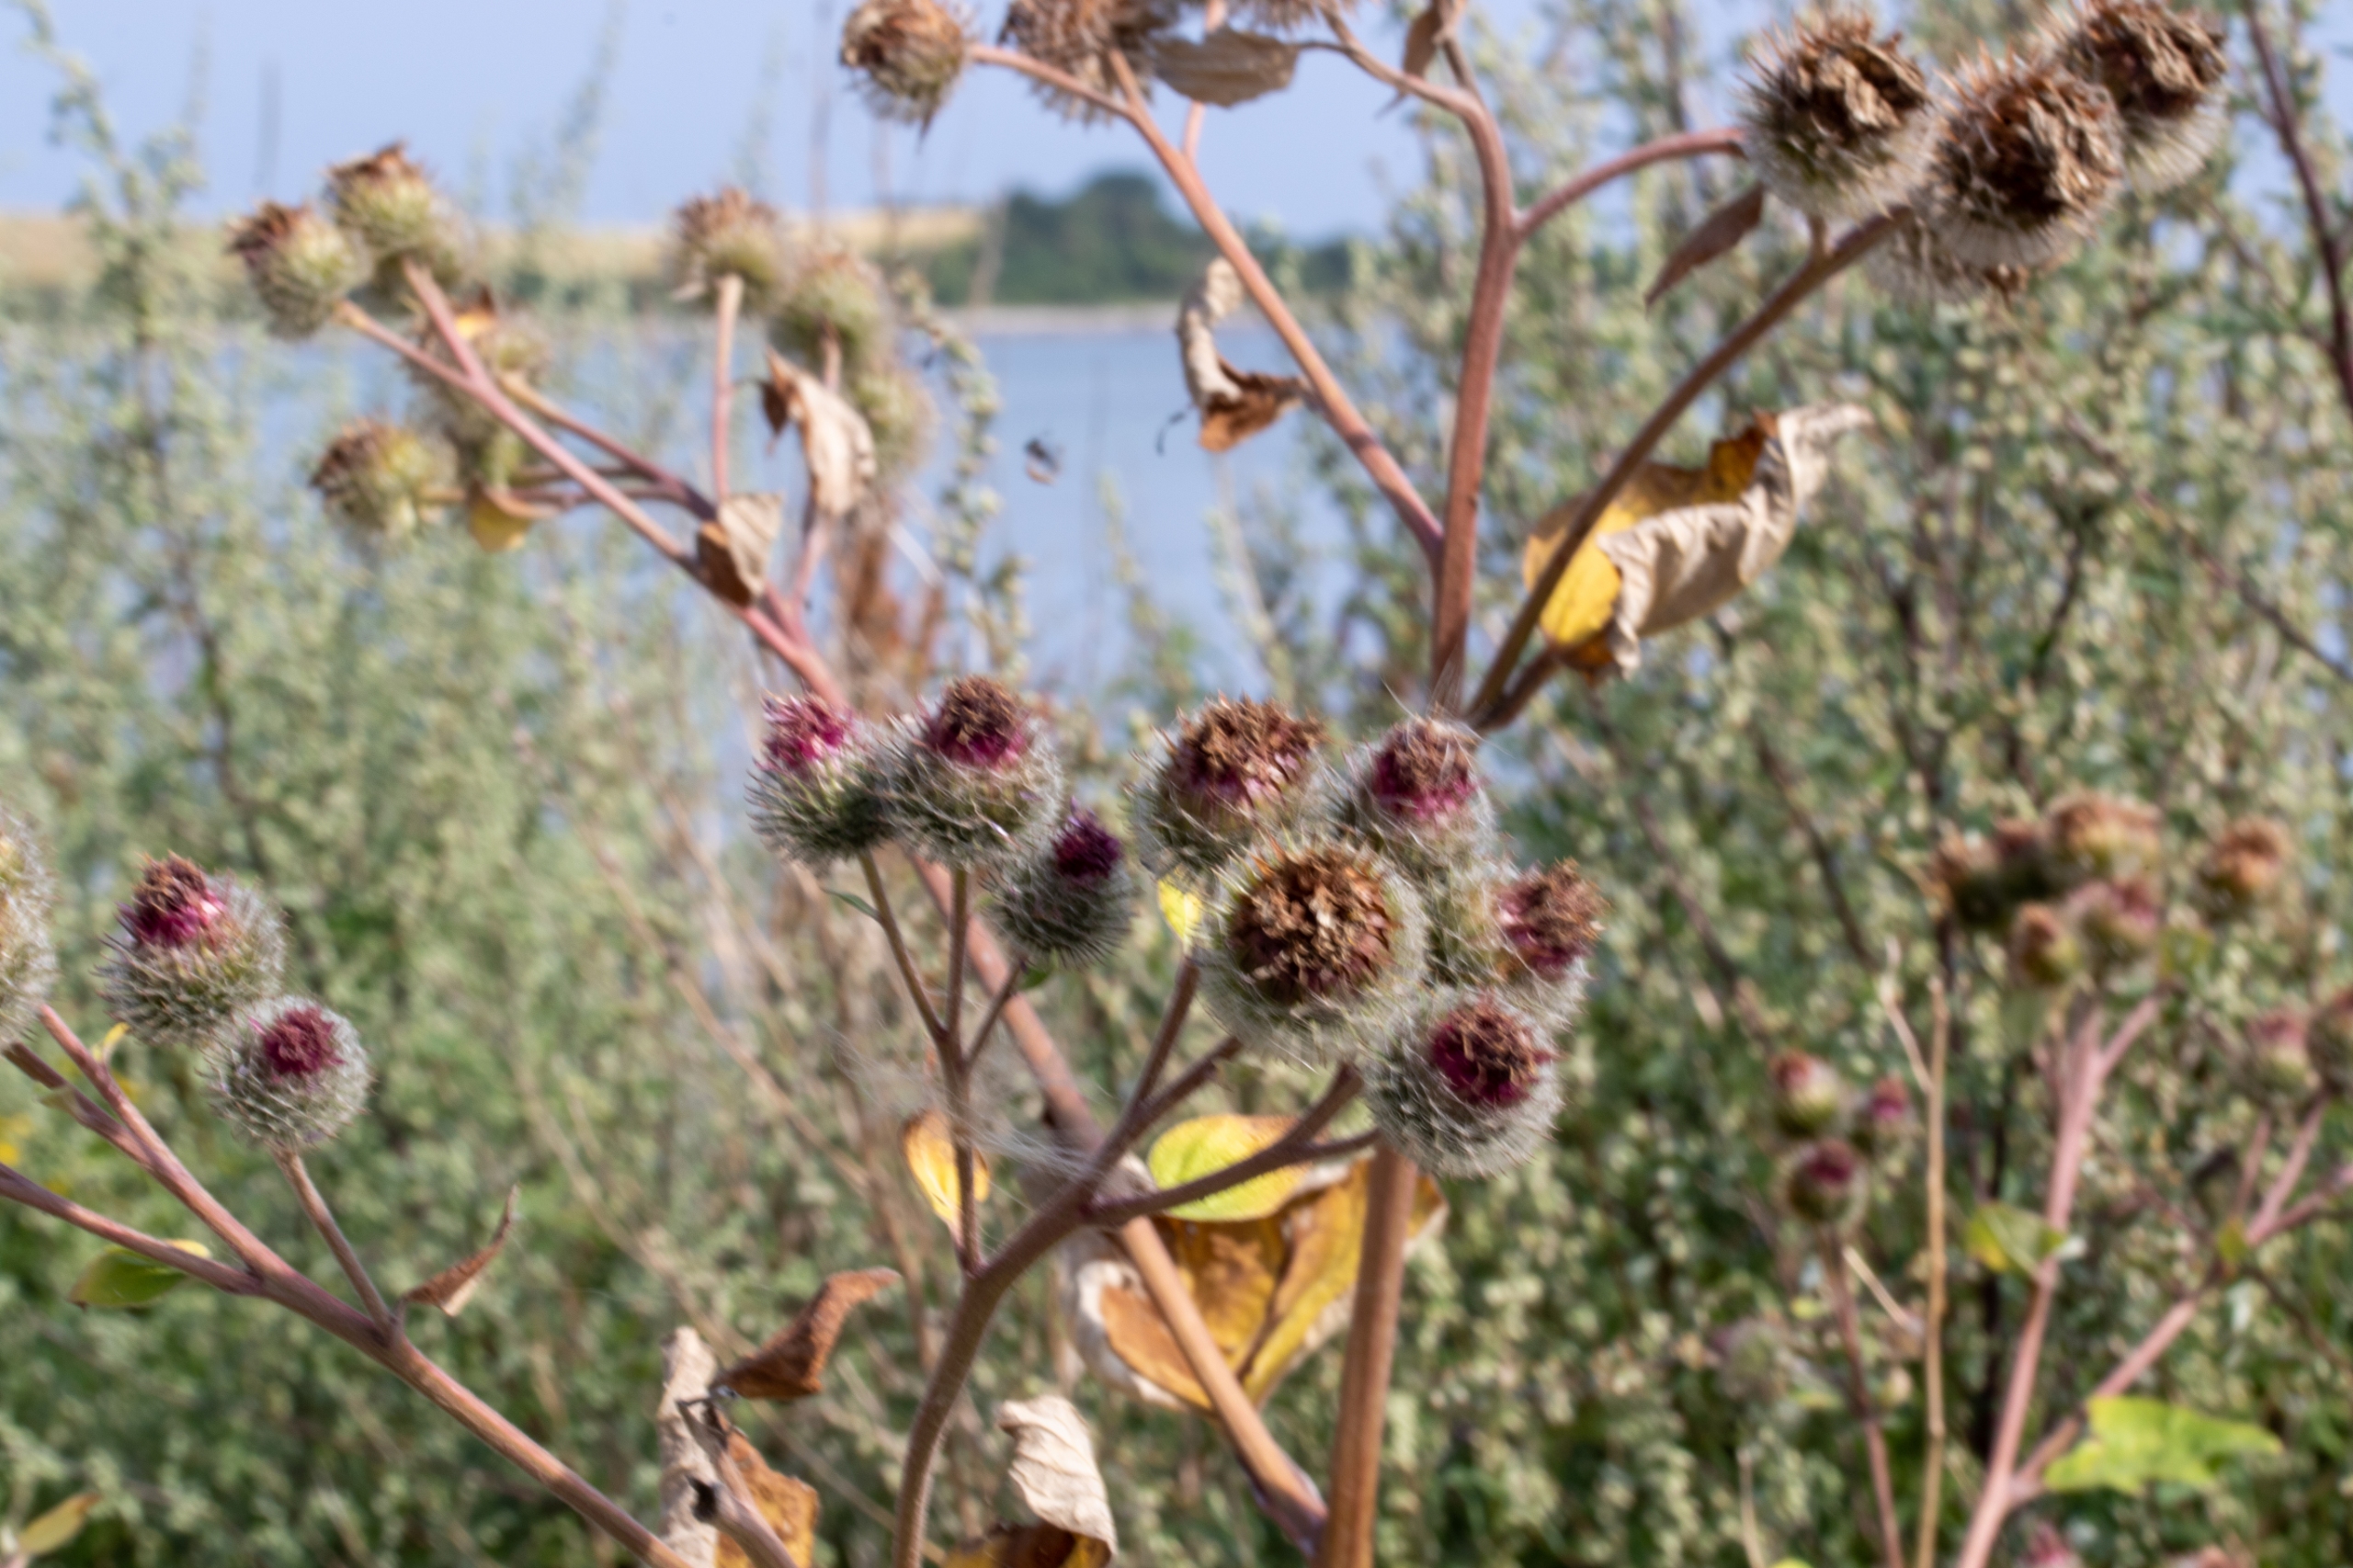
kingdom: Plantae
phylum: Tracheophyta
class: Magnoliopsida
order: Asterales
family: Asteraceae
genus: Arctium
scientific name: Arctium tomentosum
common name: Filtet burre
